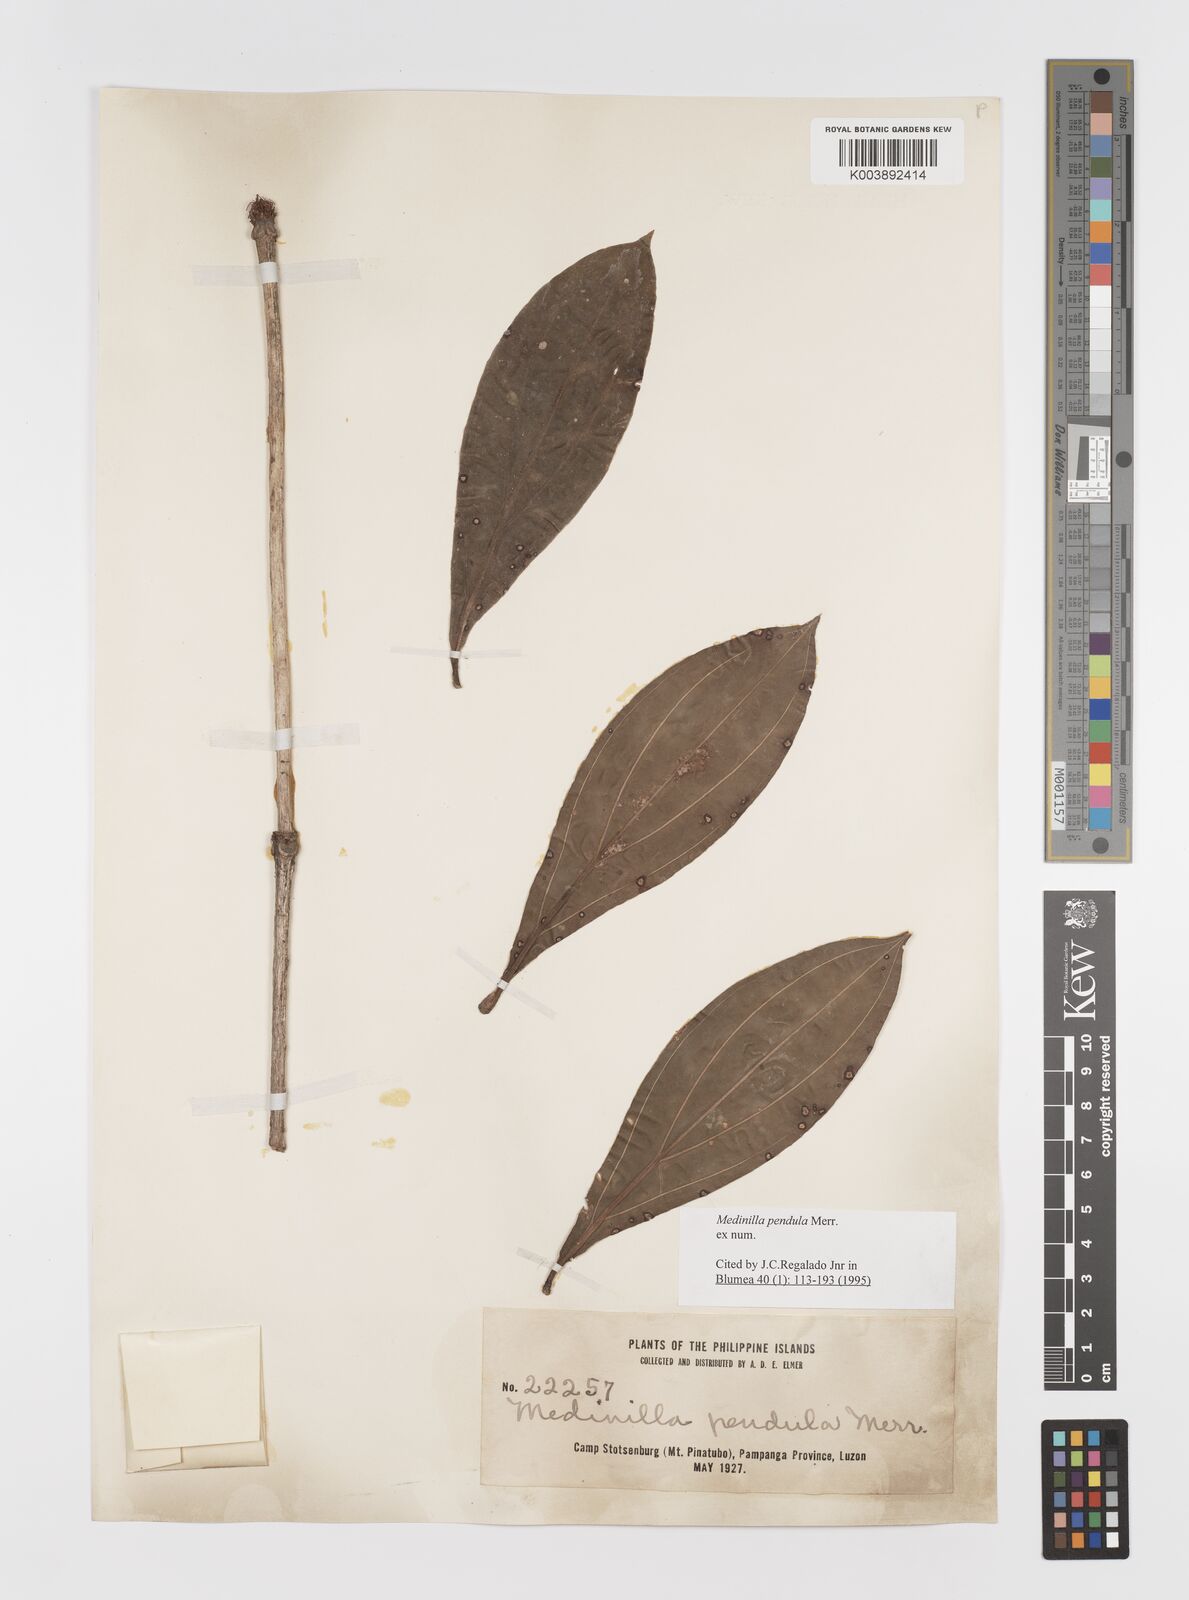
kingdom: Plantae
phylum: Tracheophyta
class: Magnoliopsida
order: Myrtales
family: Melastomataceae
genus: Medinilla
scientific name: Medinilla pendula
